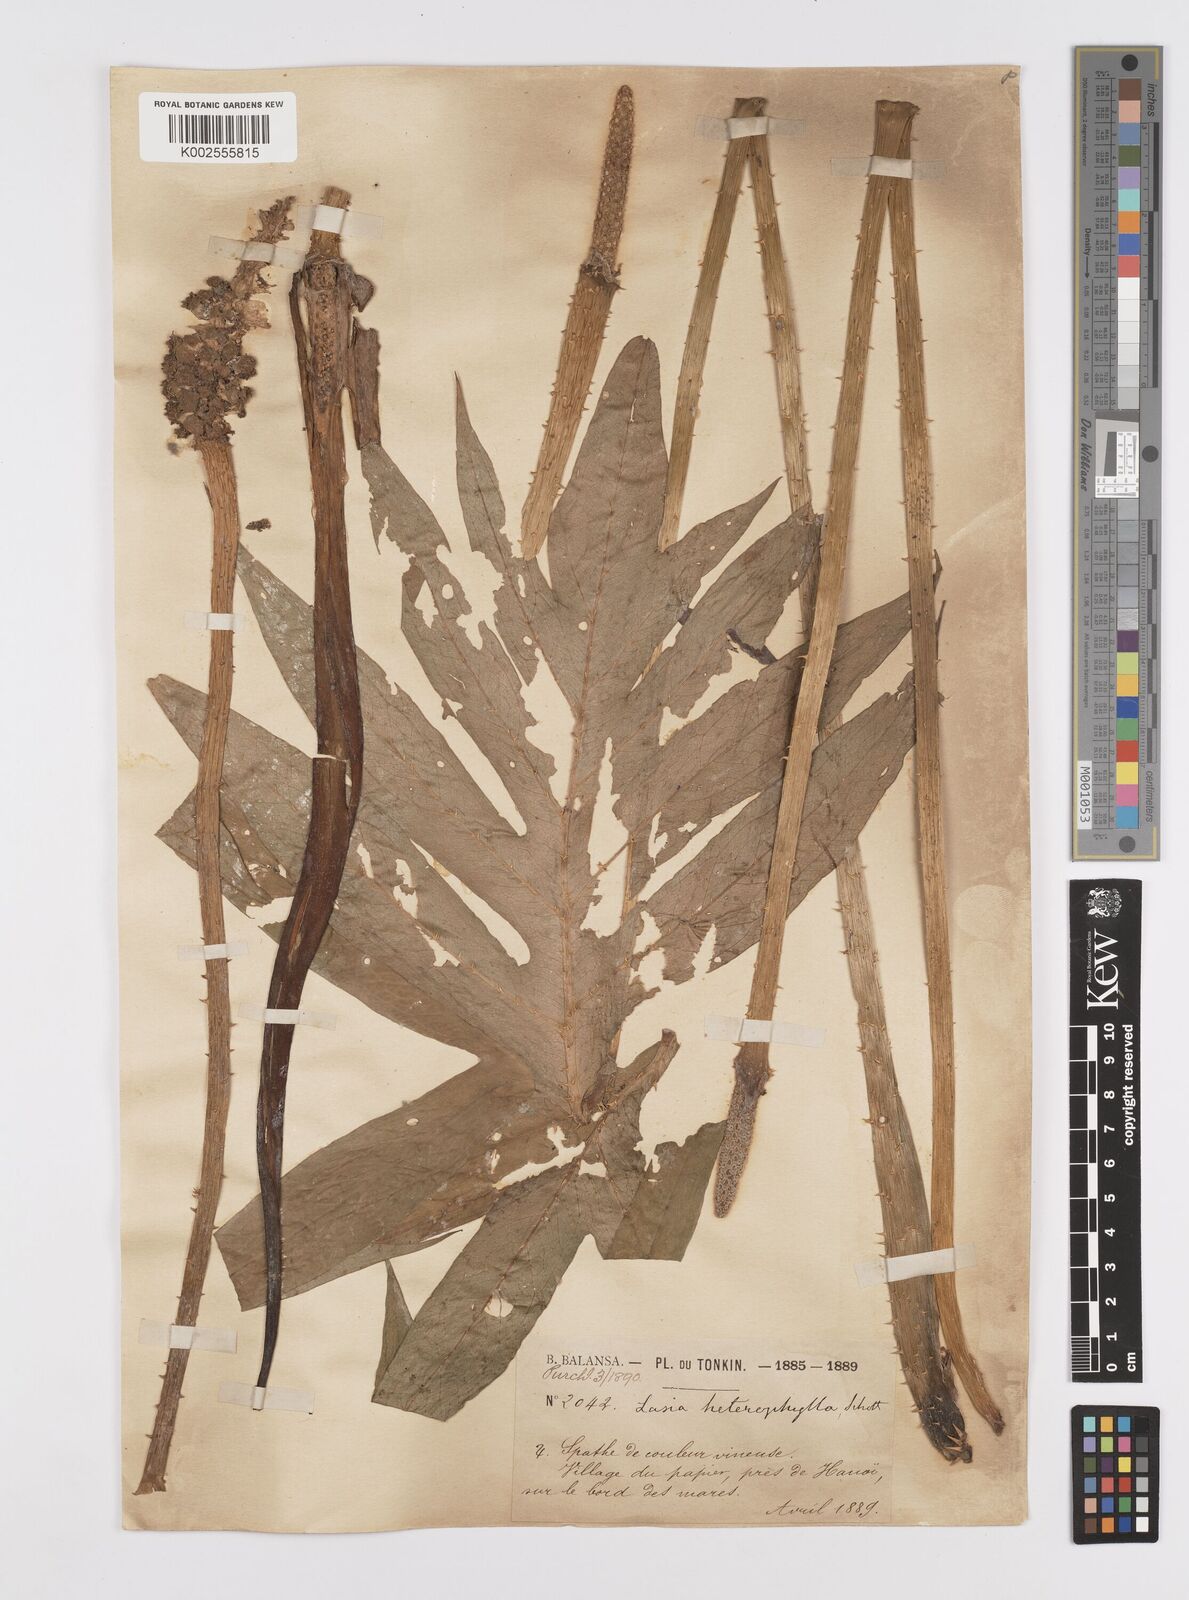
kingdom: Plantae
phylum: Tracheophyta
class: Liliopsida
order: Alismatales
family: Araceae
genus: Lasia
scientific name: Lasia spinosa
